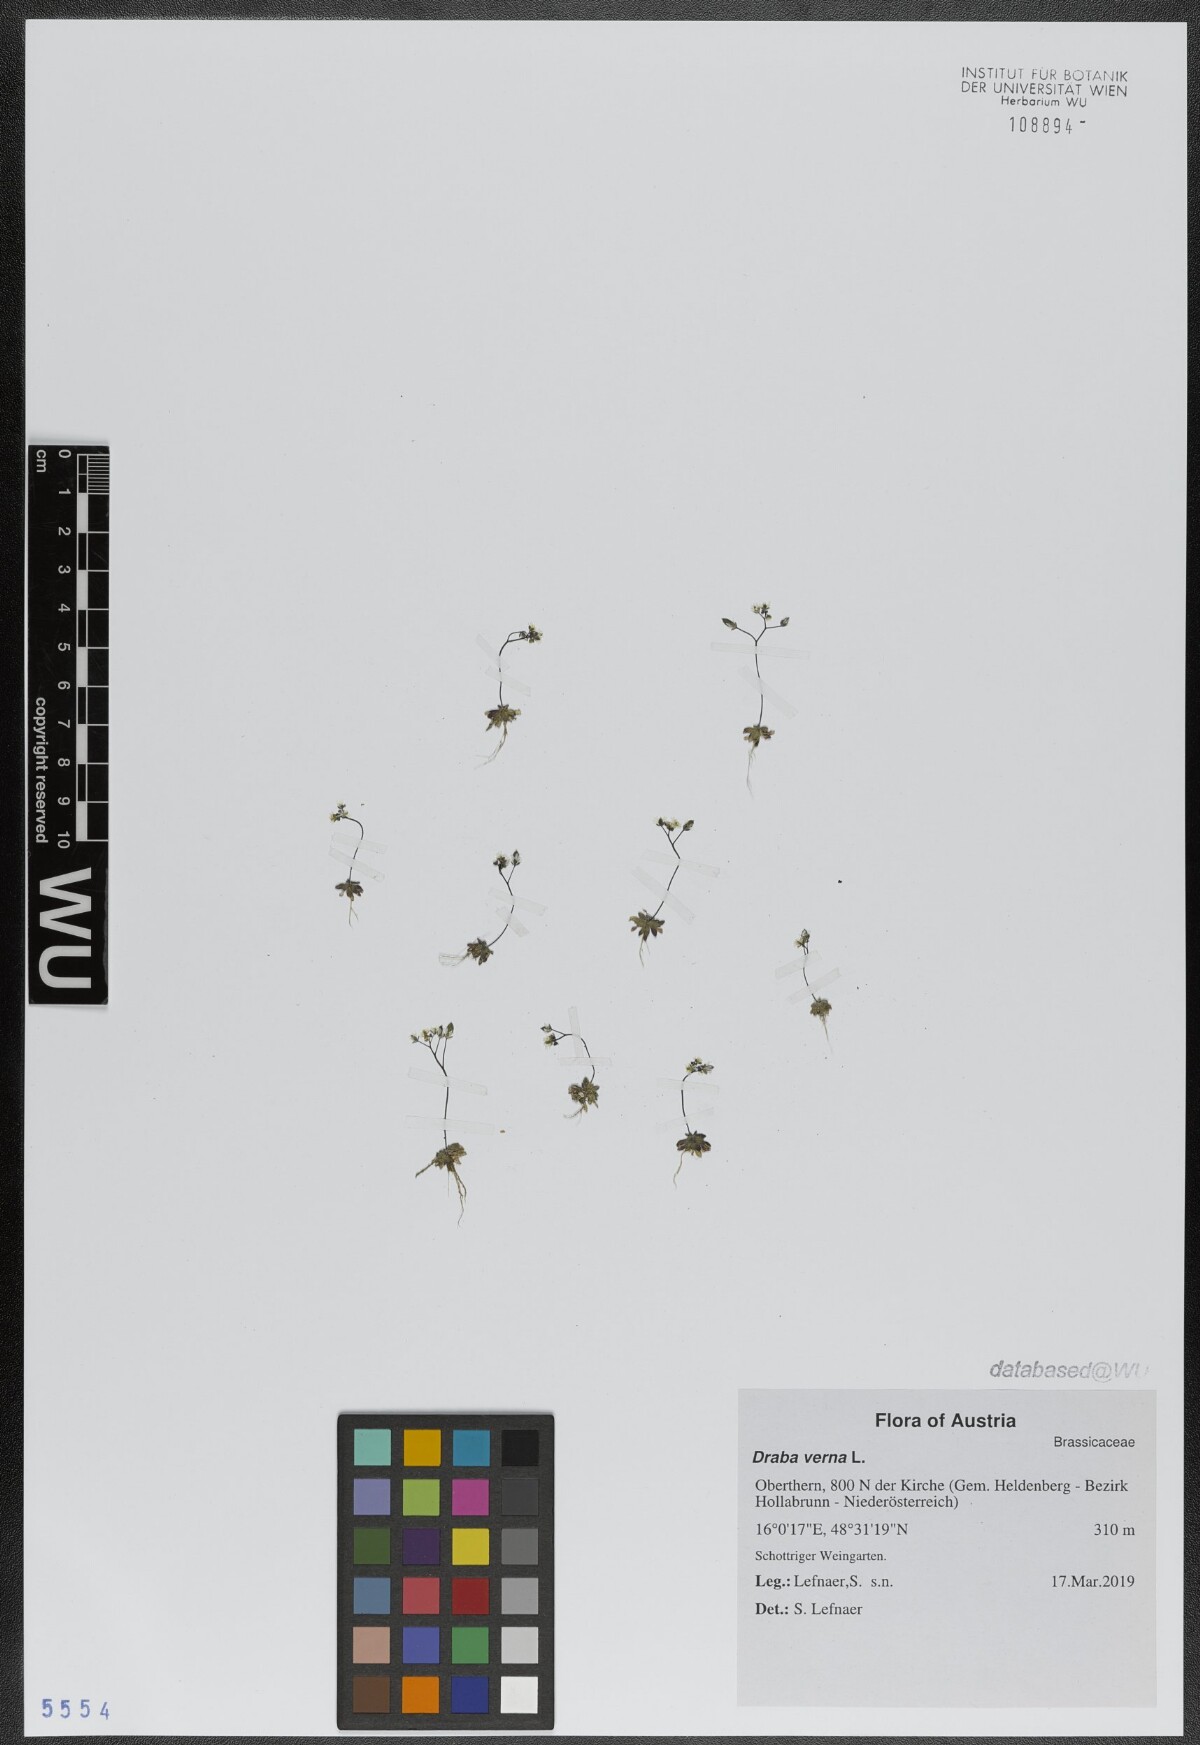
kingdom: Plantae
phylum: Tracheophyta
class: Magnoliopsida
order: Brassicales
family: Brassicaceae
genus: Draba
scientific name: Draba verna
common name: Spring draba
